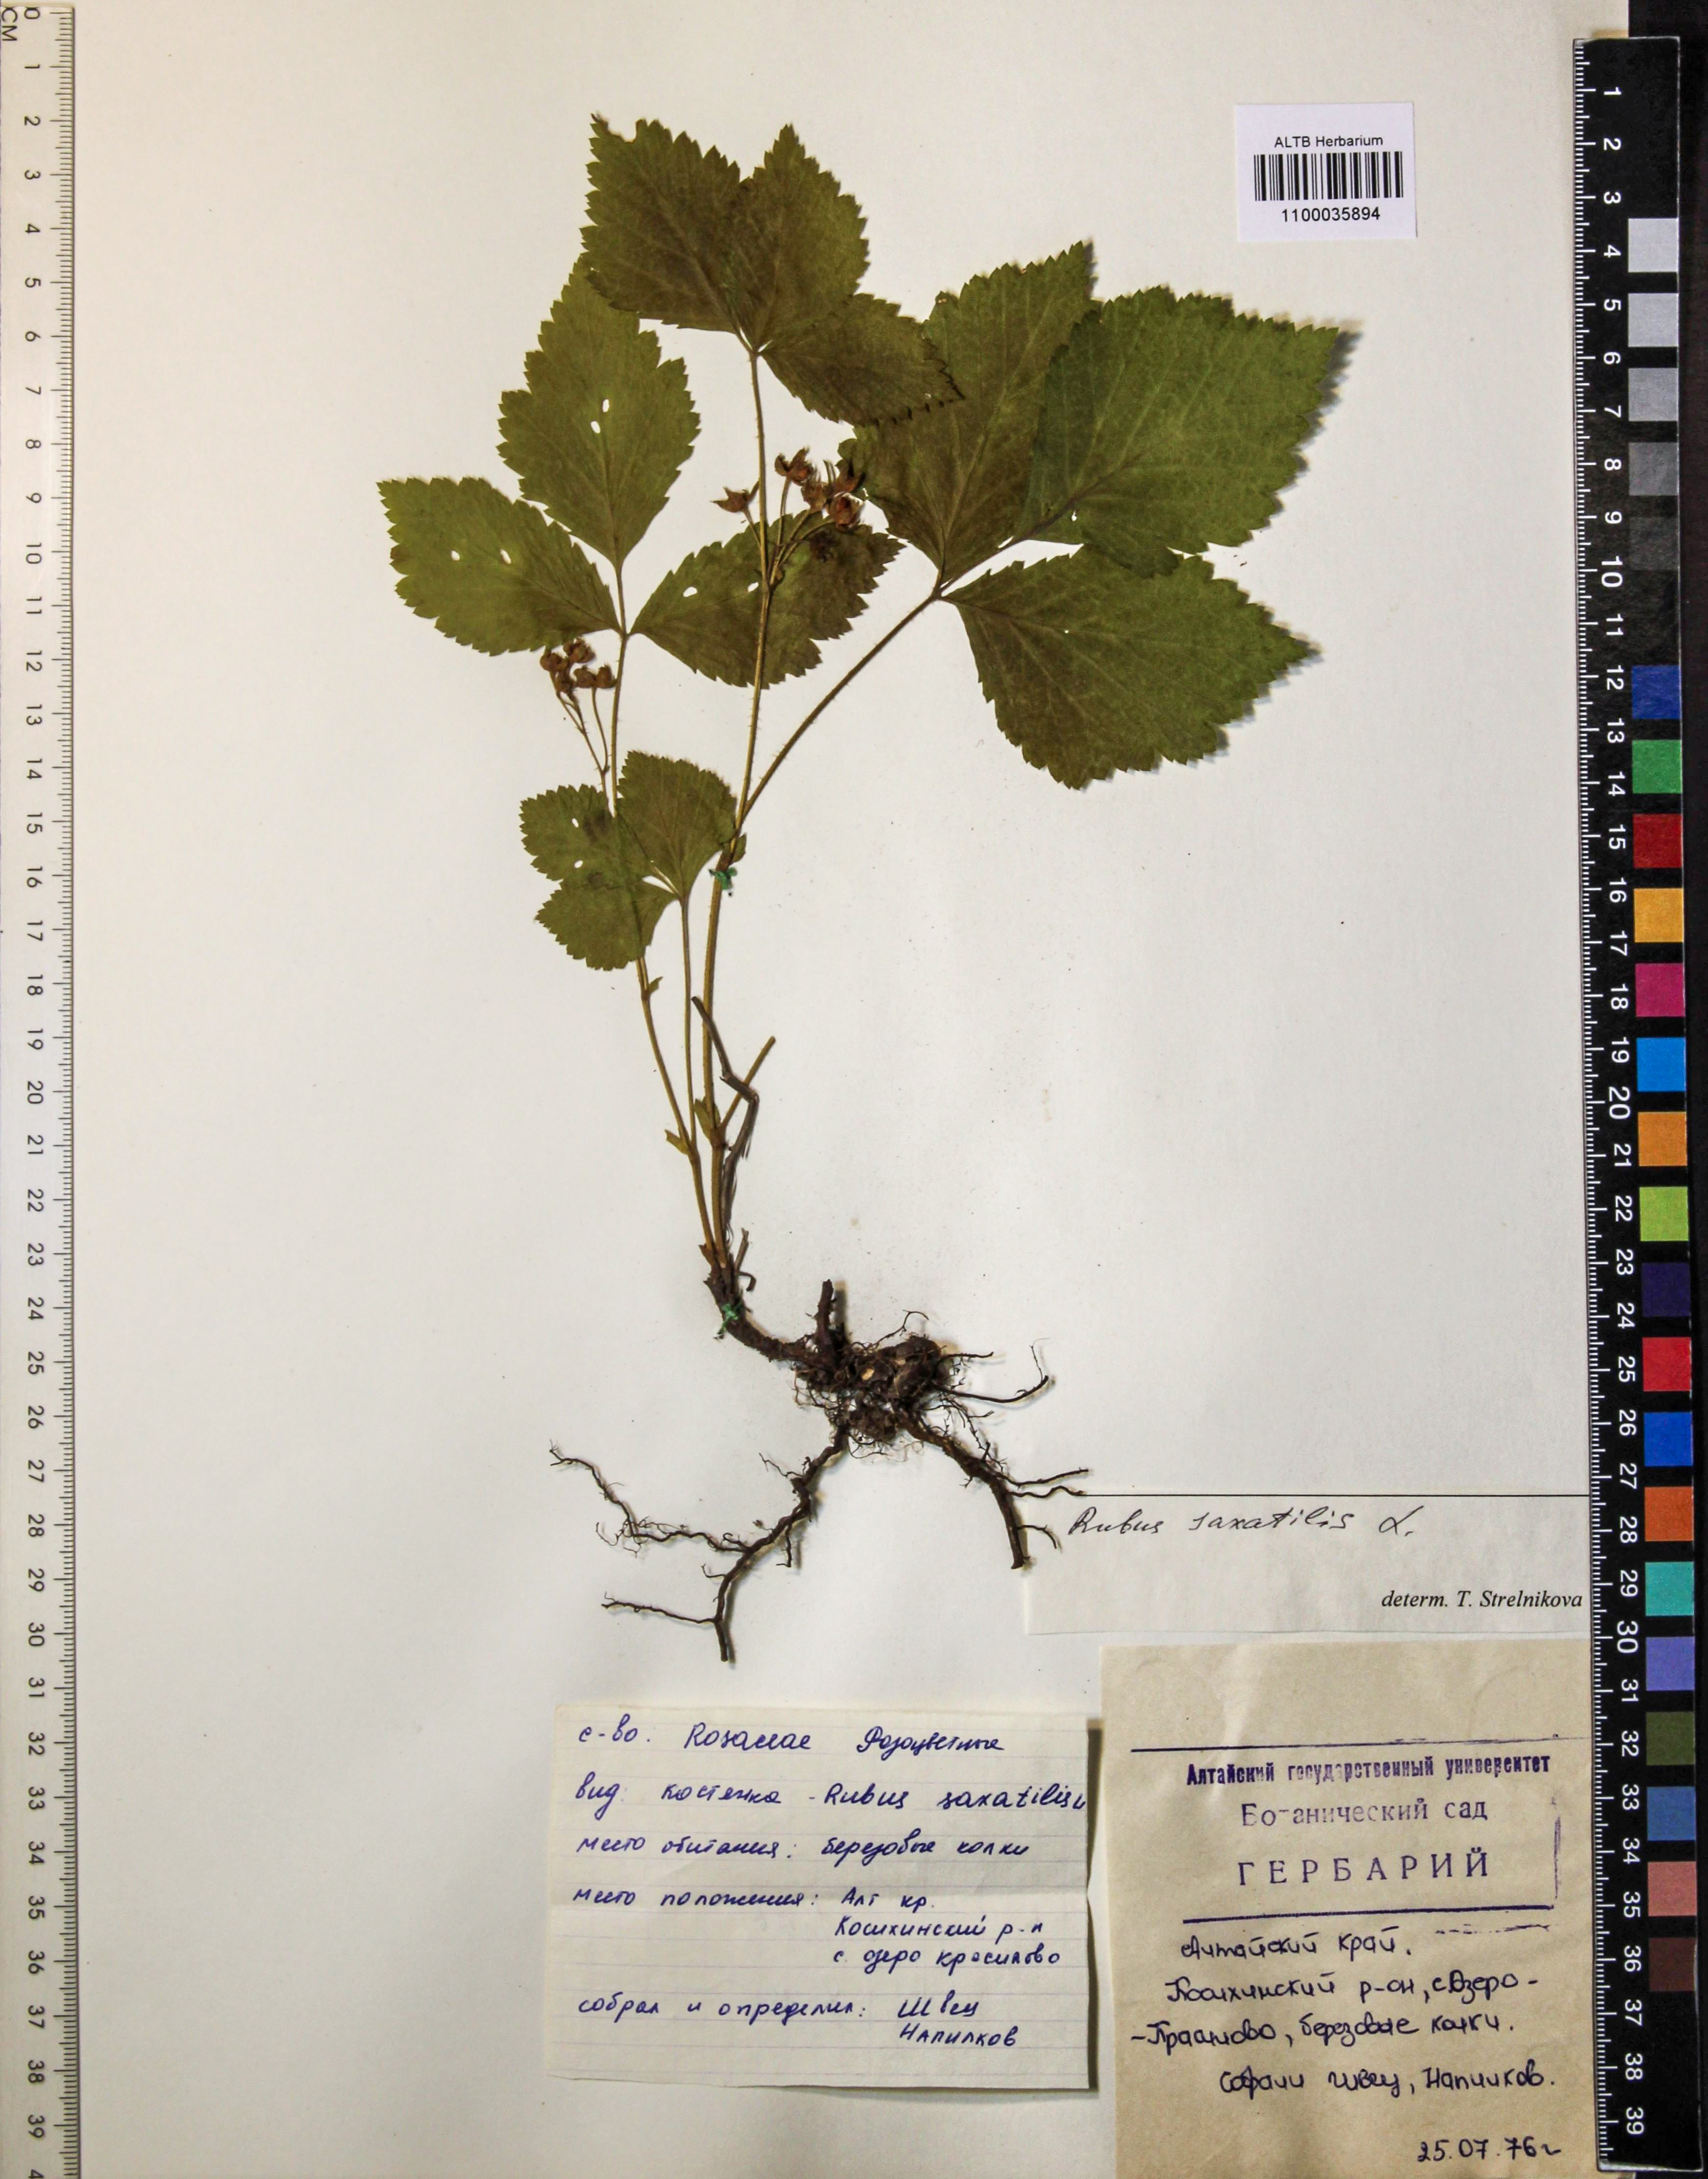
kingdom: Plantae
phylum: Tracheophyta
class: Magnoliopsida
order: Rosales
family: Rosaceae
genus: Rubus
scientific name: Rubus saxatilis
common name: Stone bramble
